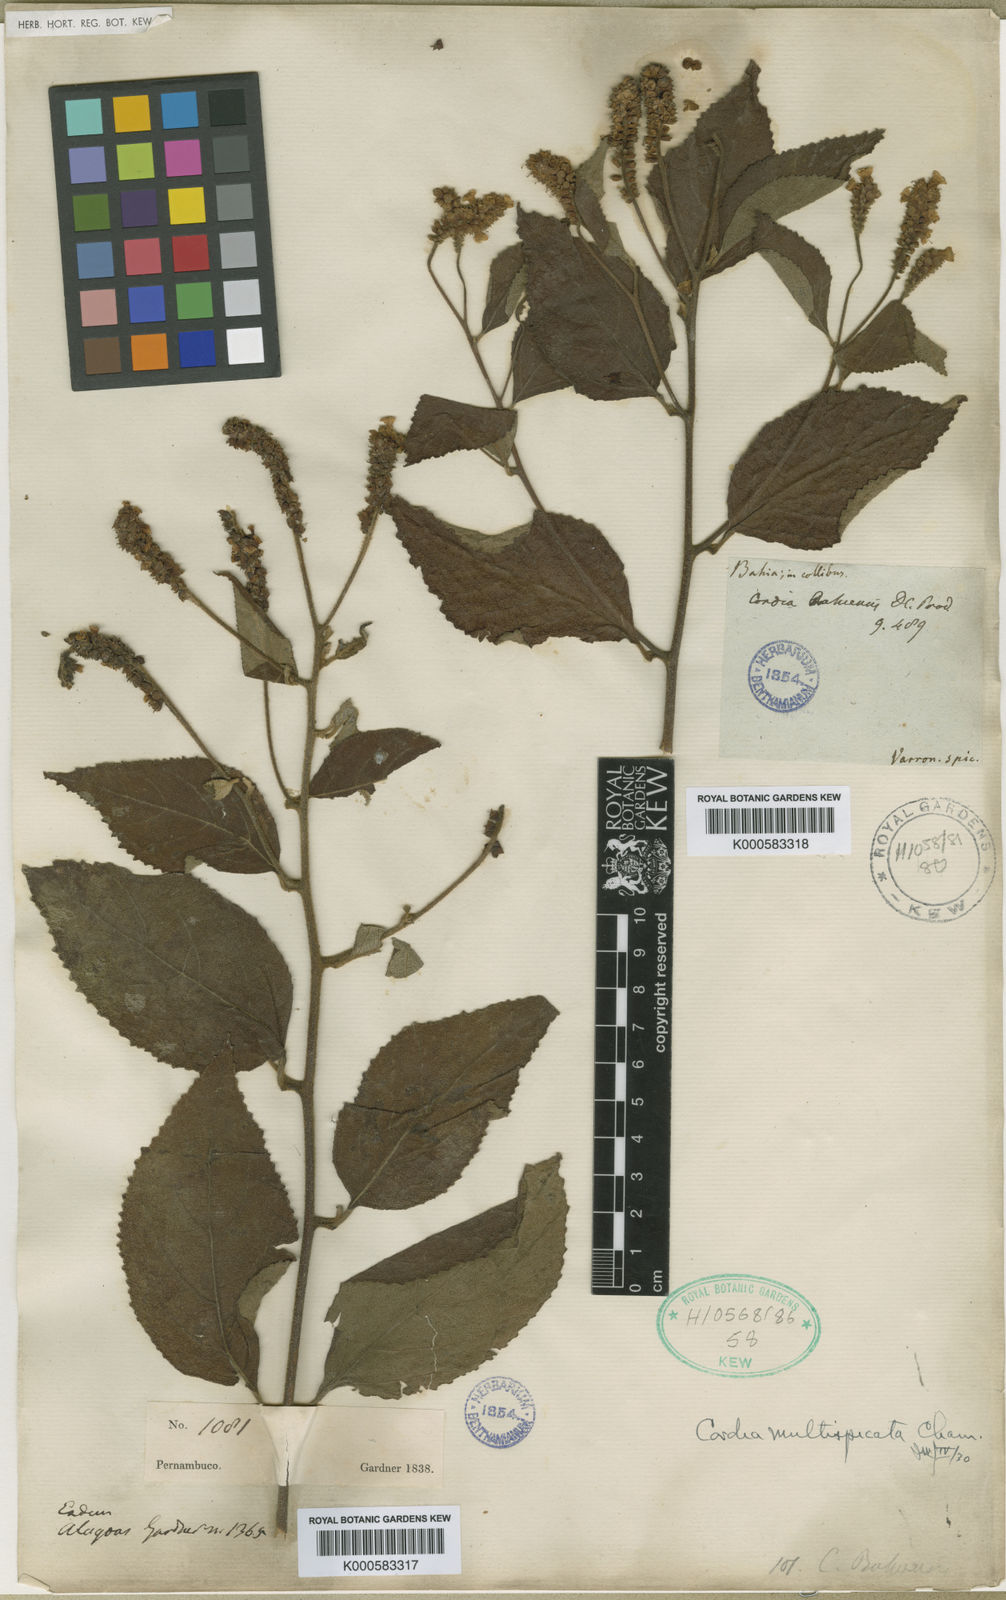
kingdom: Plantae
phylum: Tracheophyta
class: Magnoliopsida
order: Boraginales
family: Cordiaceae
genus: Varronia
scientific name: Varronia multispicata
